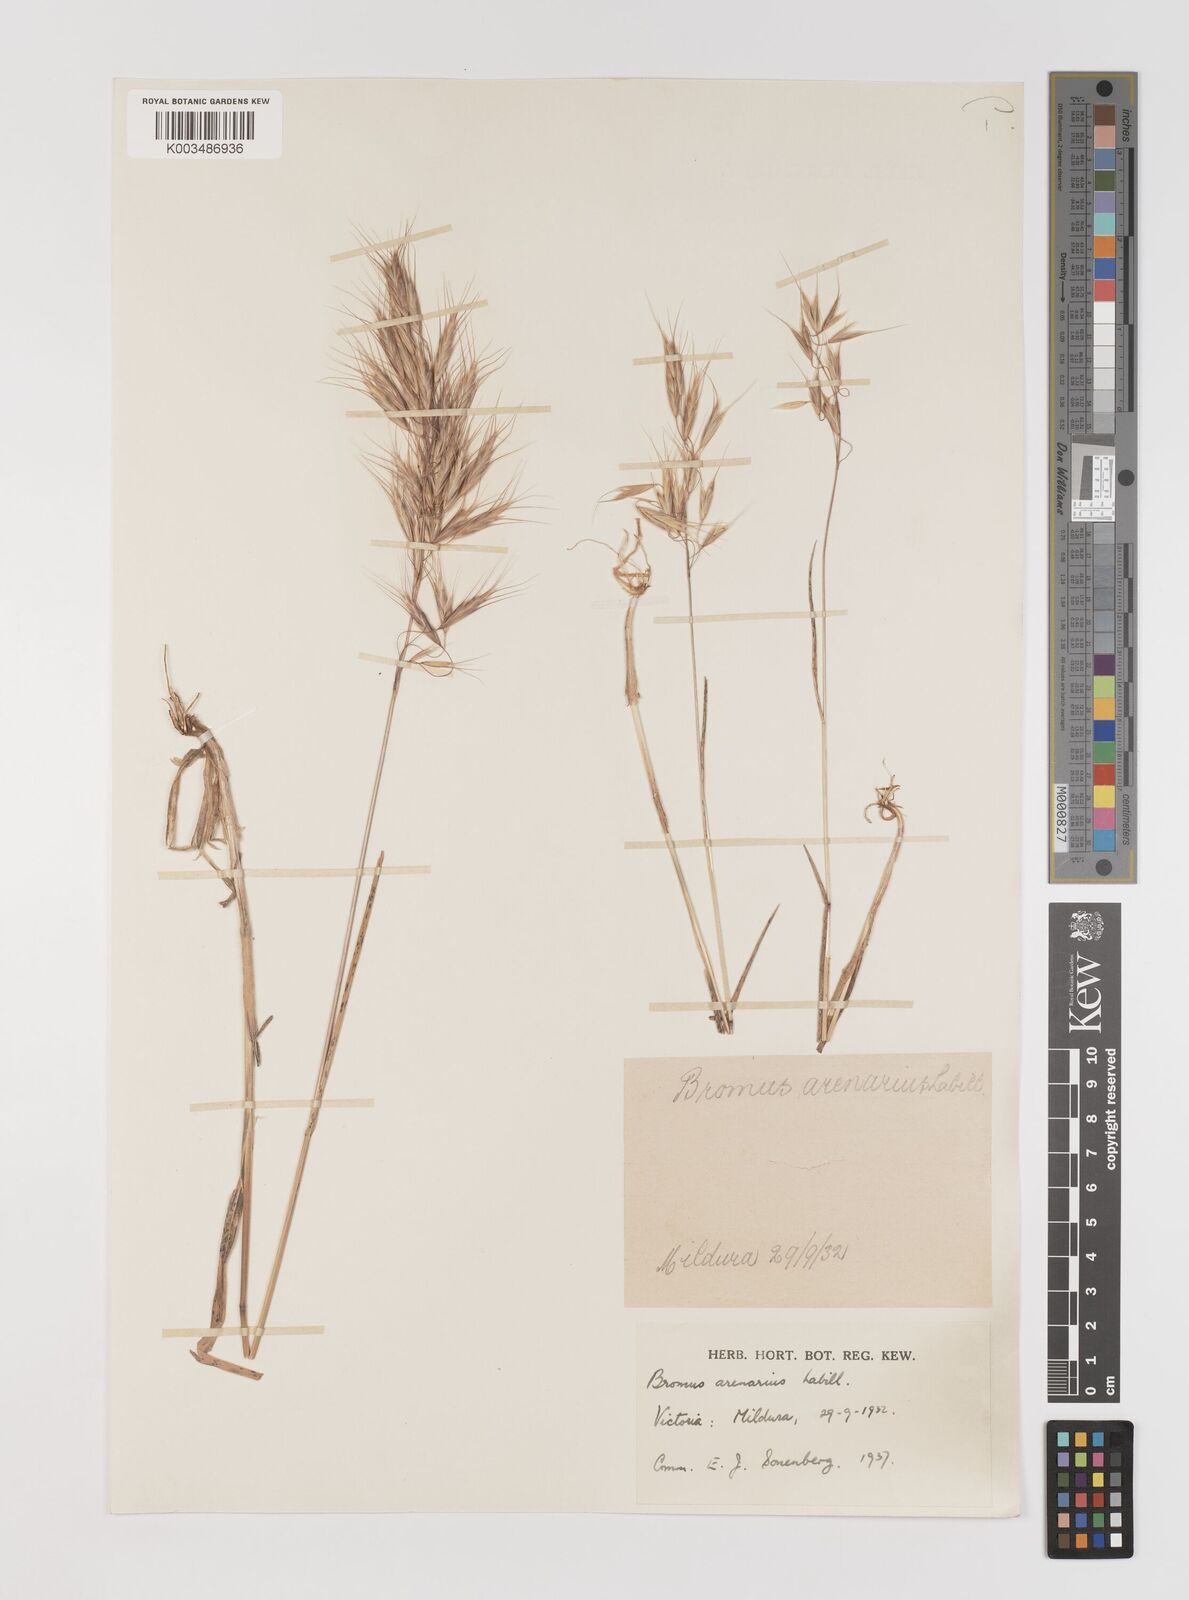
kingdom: Plantae
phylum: Tracheophyta
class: Liliopsida
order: Poales
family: Poaceae
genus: Bromus
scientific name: Bromus arenarius
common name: Australian brome
